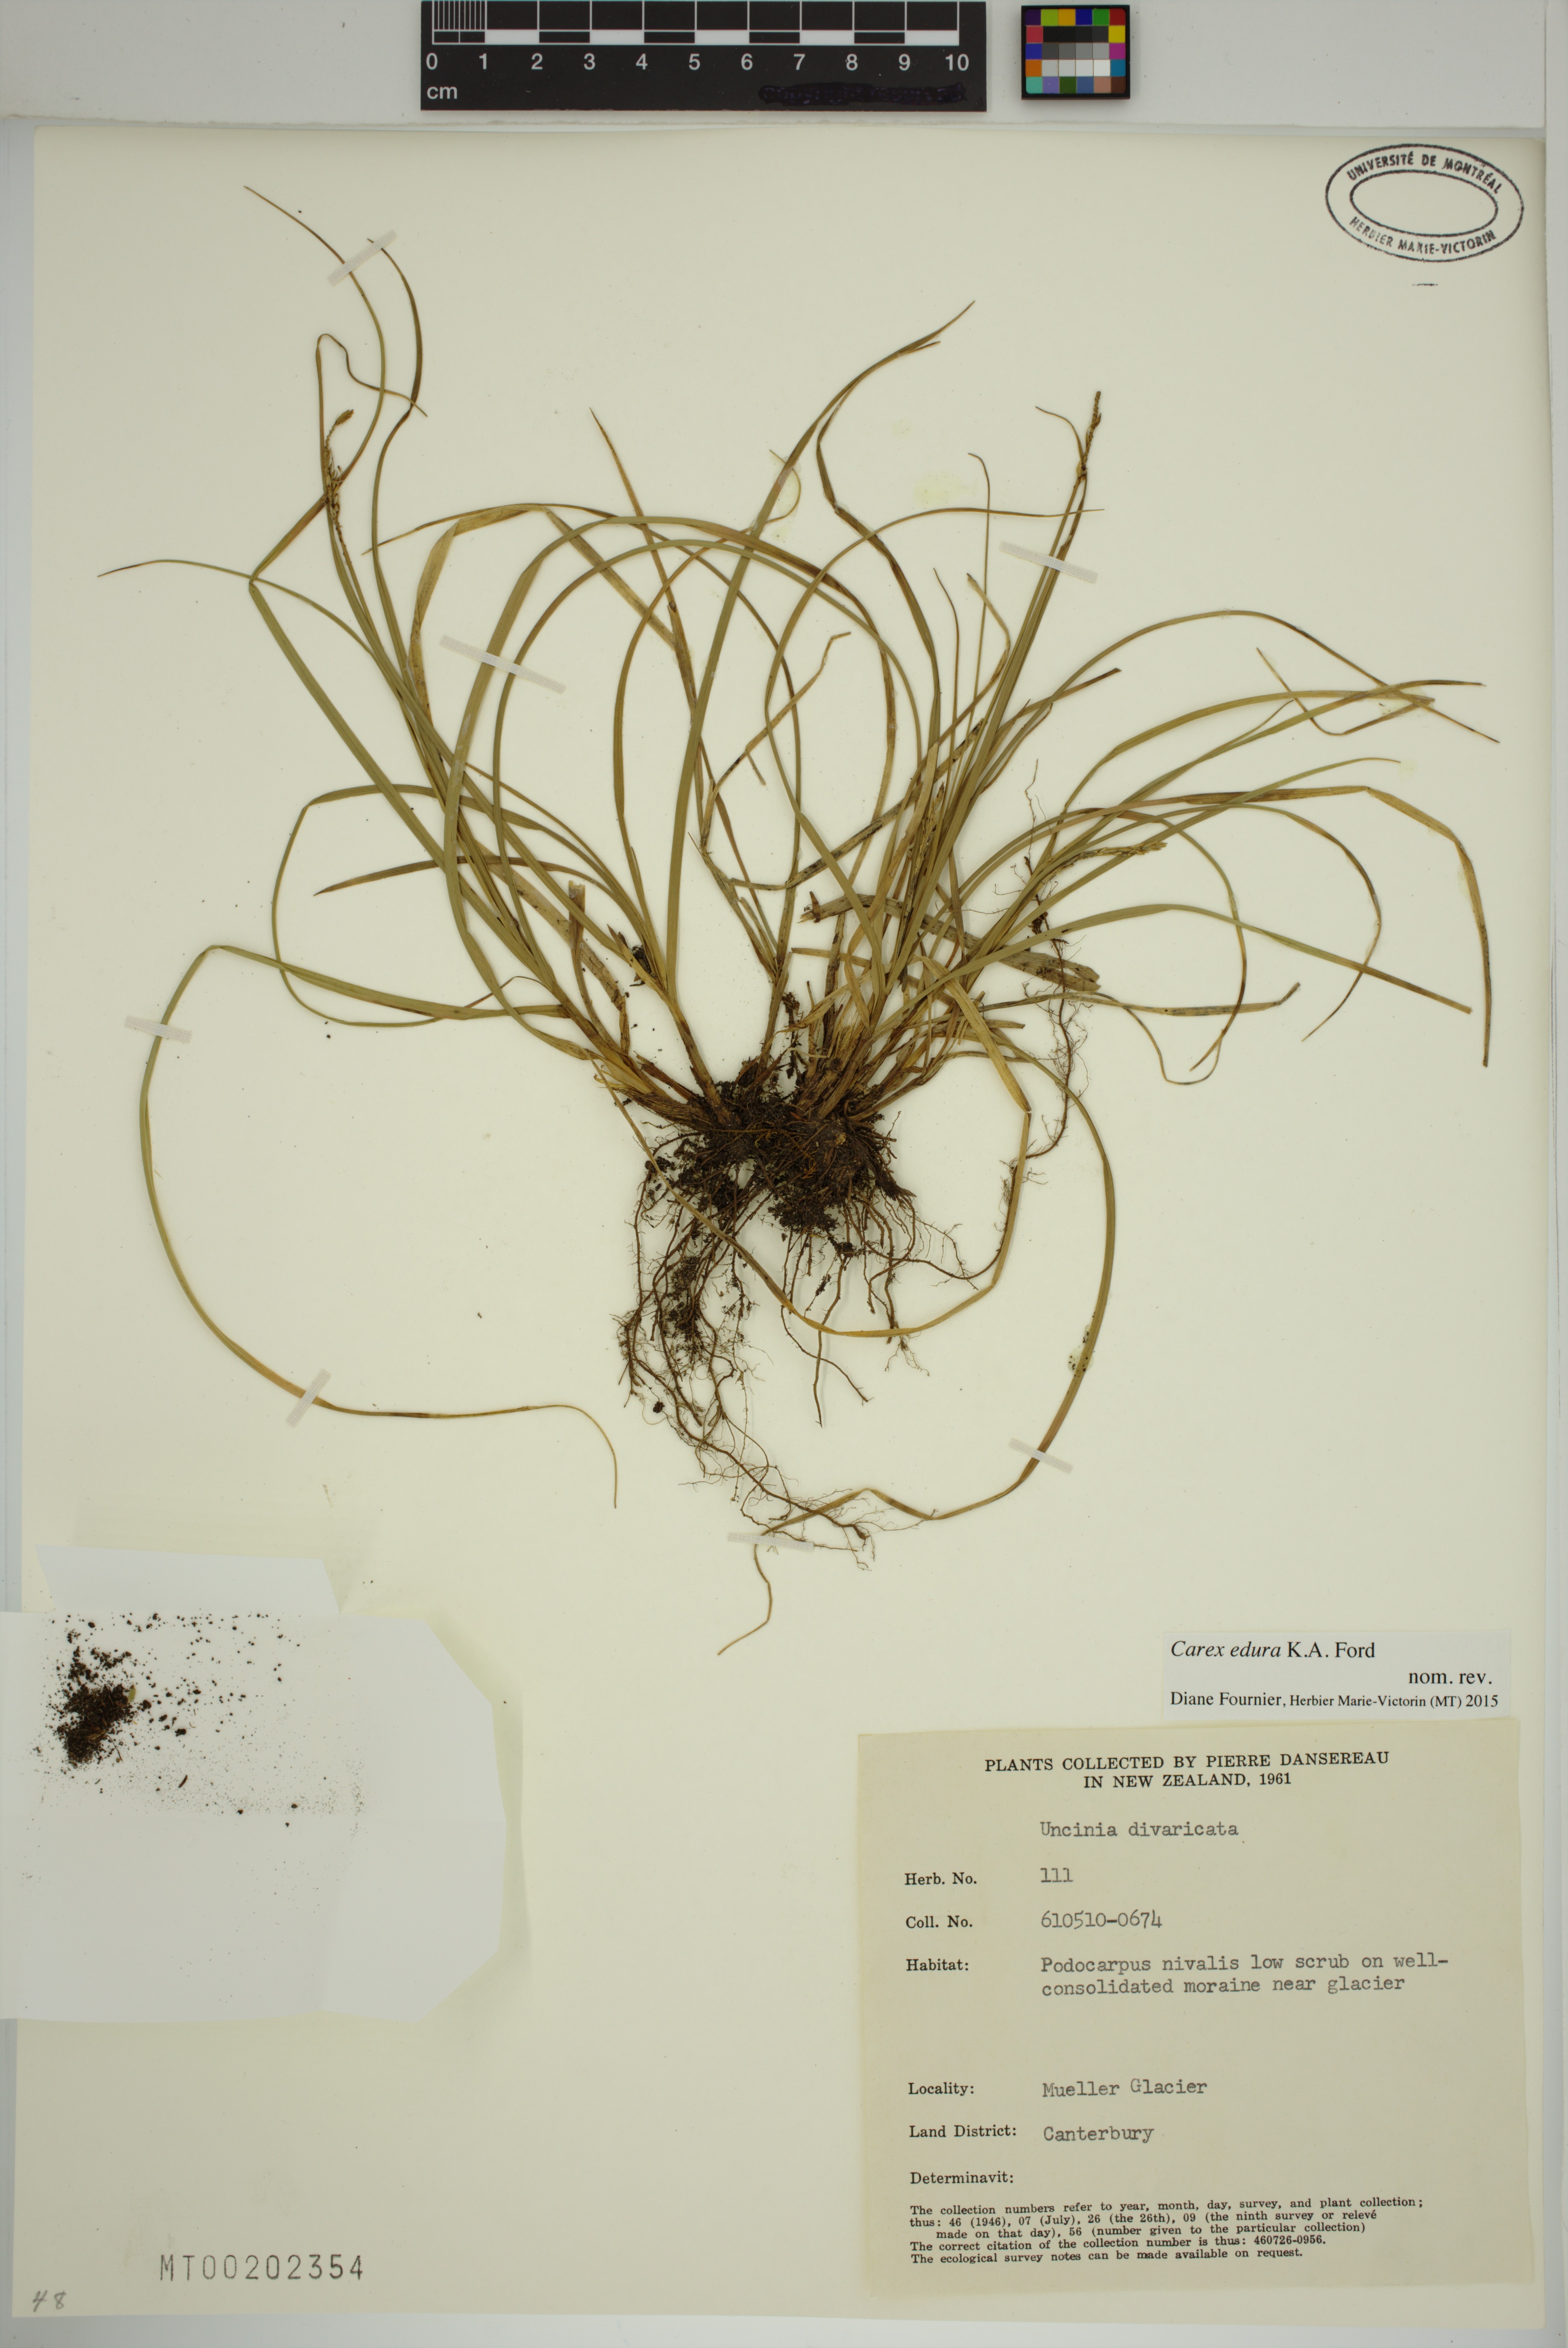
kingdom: Plantae
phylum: Tracheophyta
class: Liliopsida
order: Poales
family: Cyperaceae
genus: Carex
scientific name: Carex edura
